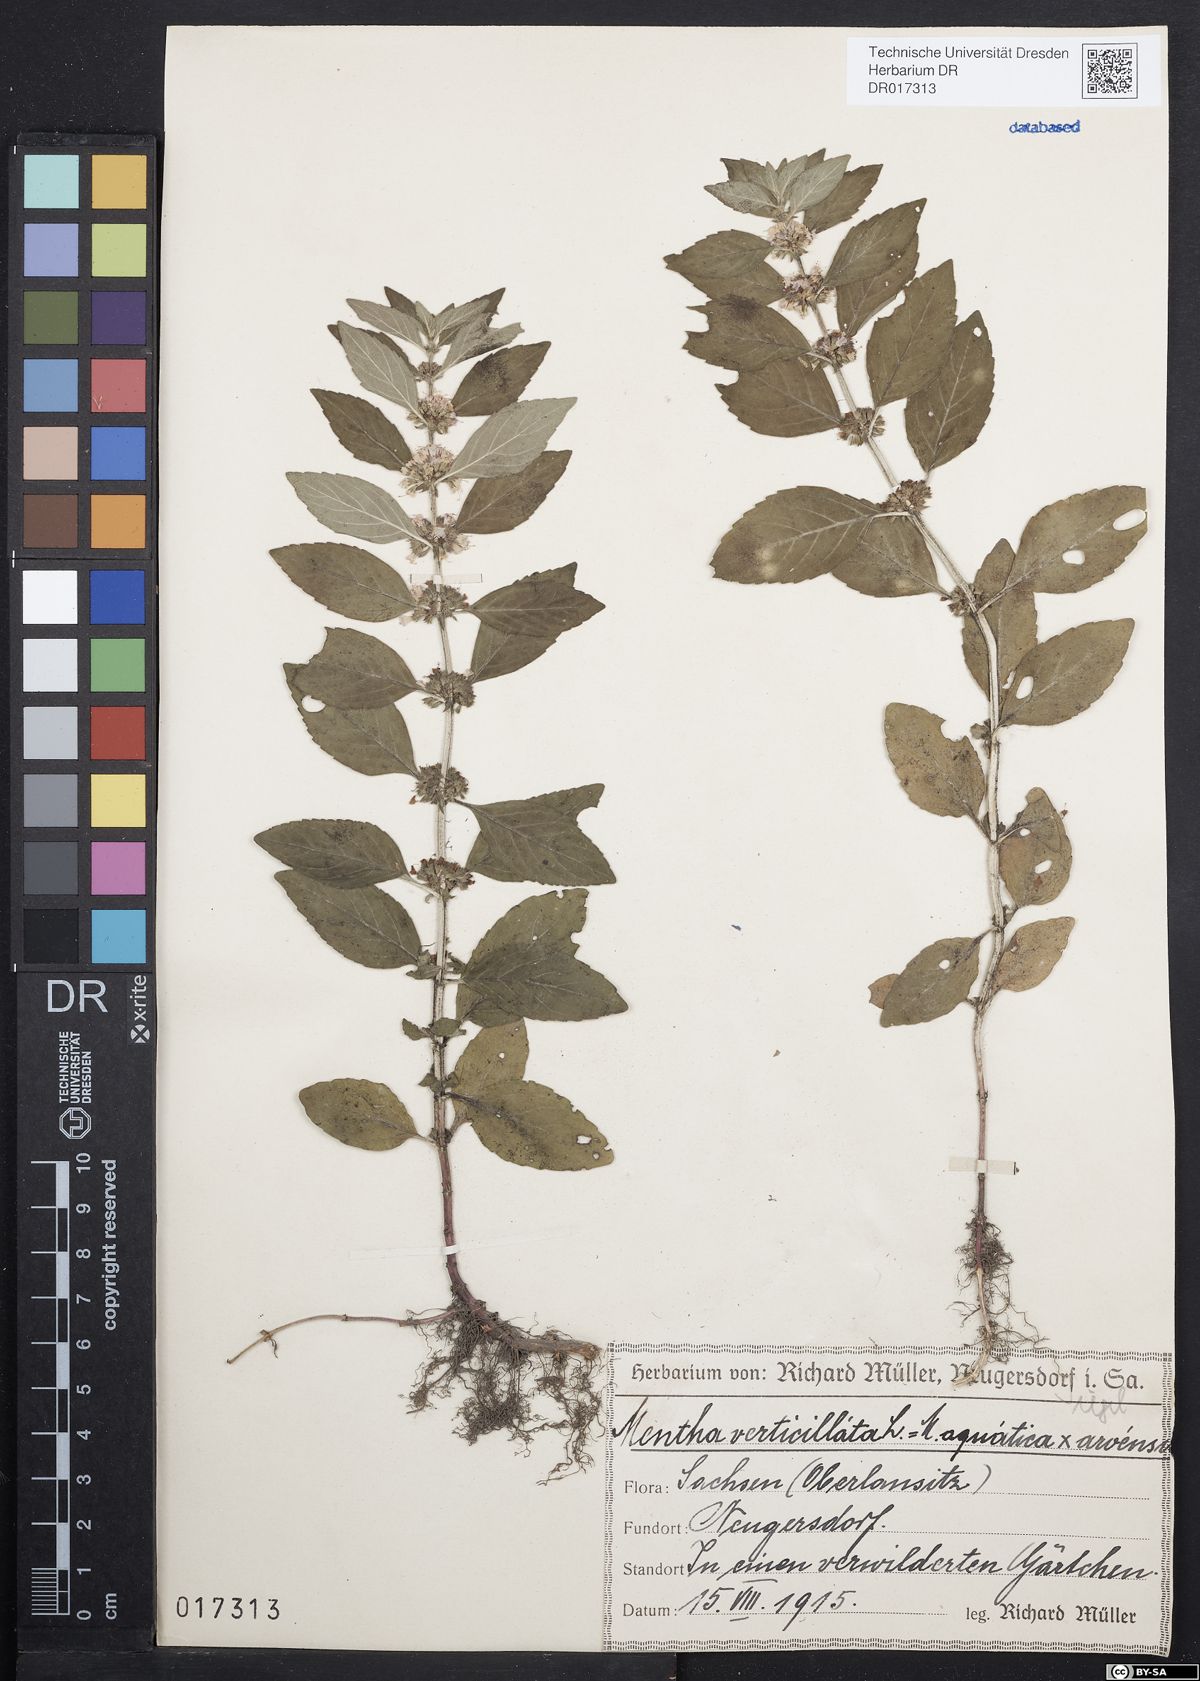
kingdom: Plantae
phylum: Tracheophyta
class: Magnoliopsida
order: Lamiales
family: Lamiaceae
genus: Mentha
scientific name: Mentha verticillata
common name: Mint
